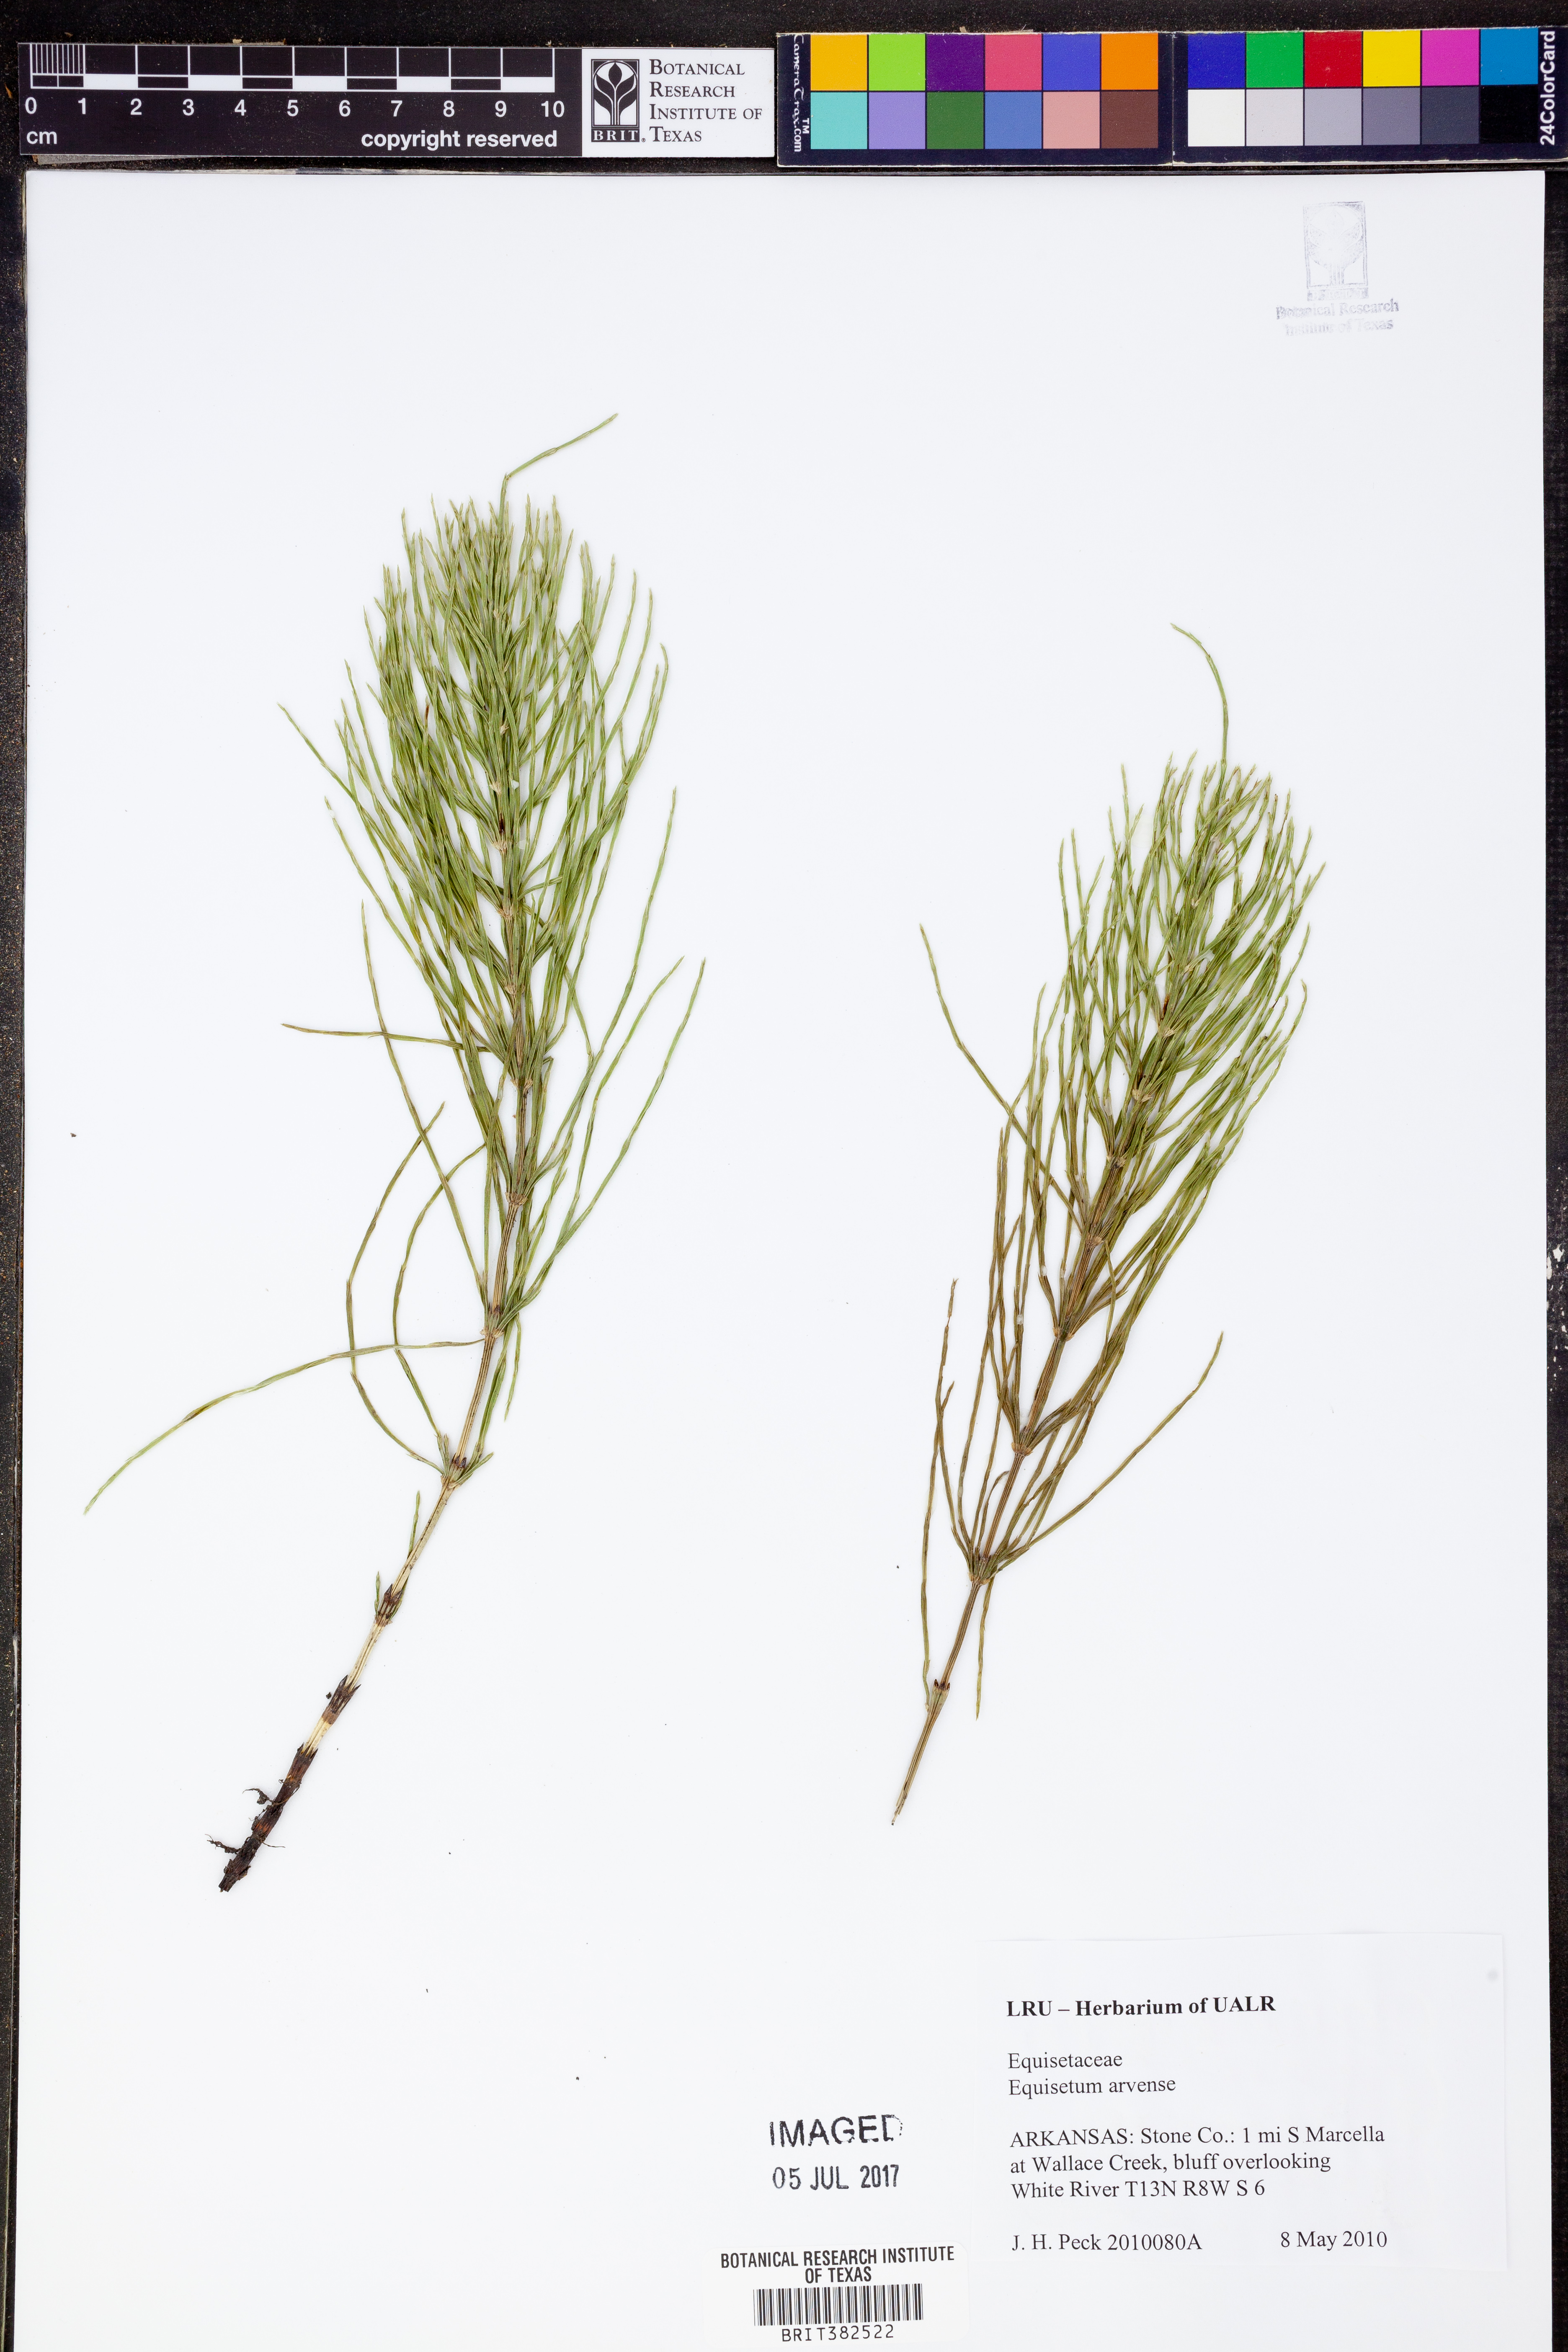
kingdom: Plantae
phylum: Tracheophyta
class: Polypodiopsida
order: Equisetales
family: Equisetaceae
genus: Equisetum
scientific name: Equisetum arvense
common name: Field horsetail
